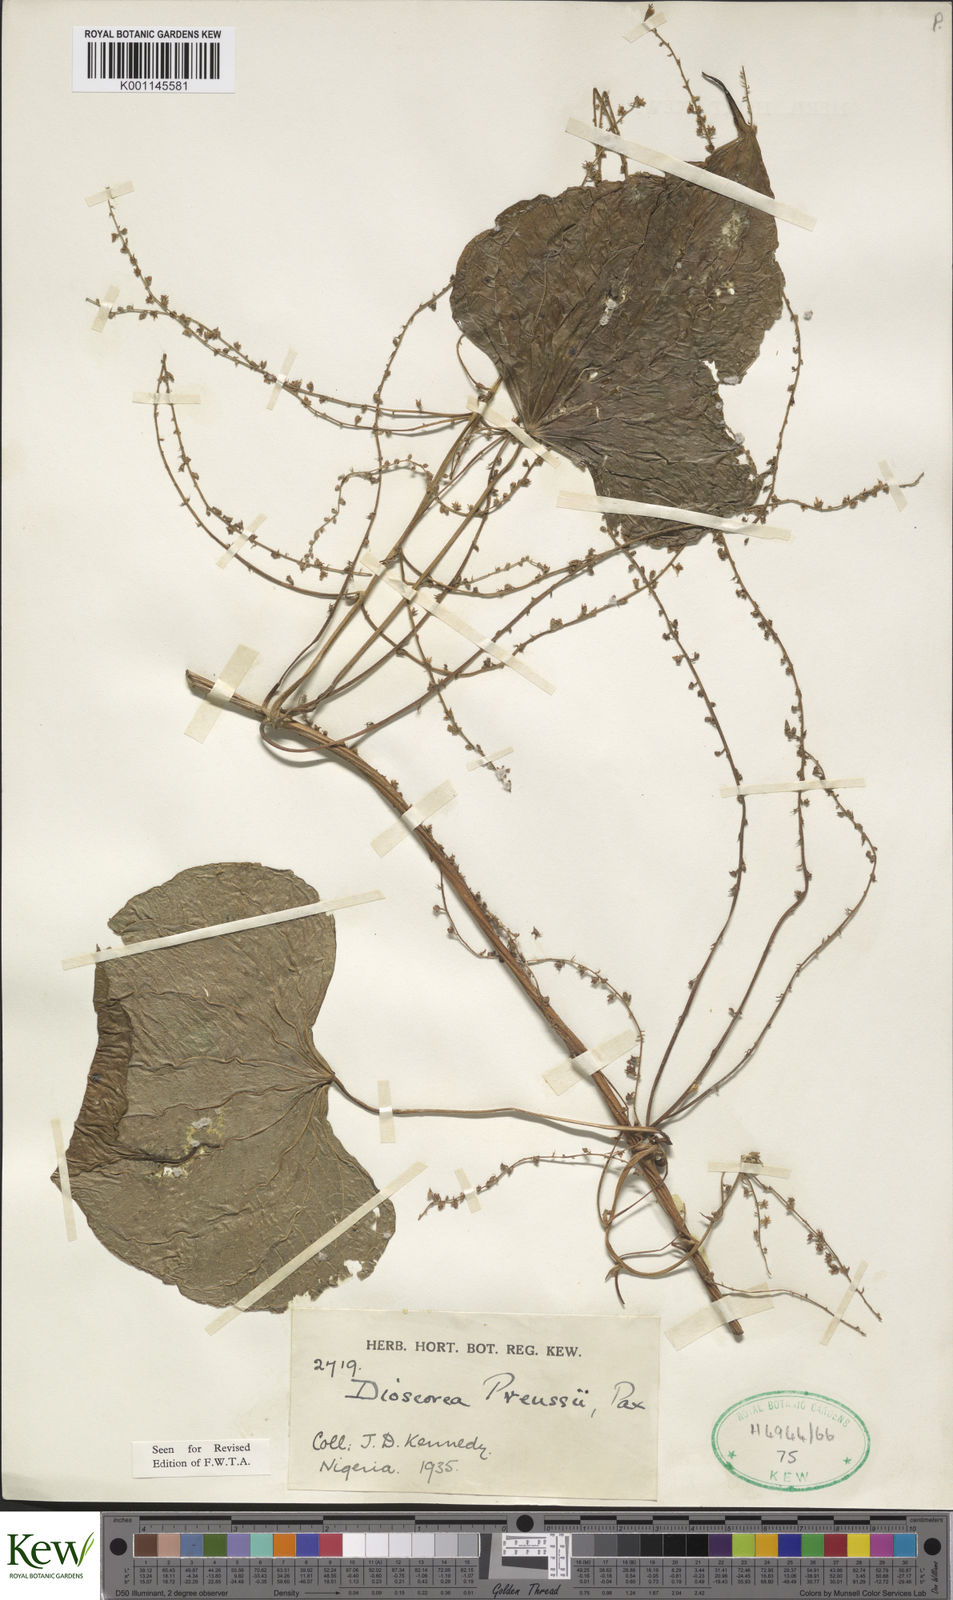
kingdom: Plantae
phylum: Tracheophyta
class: Liliopsida
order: Dioscoreales
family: Dioscoreaceae
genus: Dioscorea
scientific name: Dioscorea preussii
